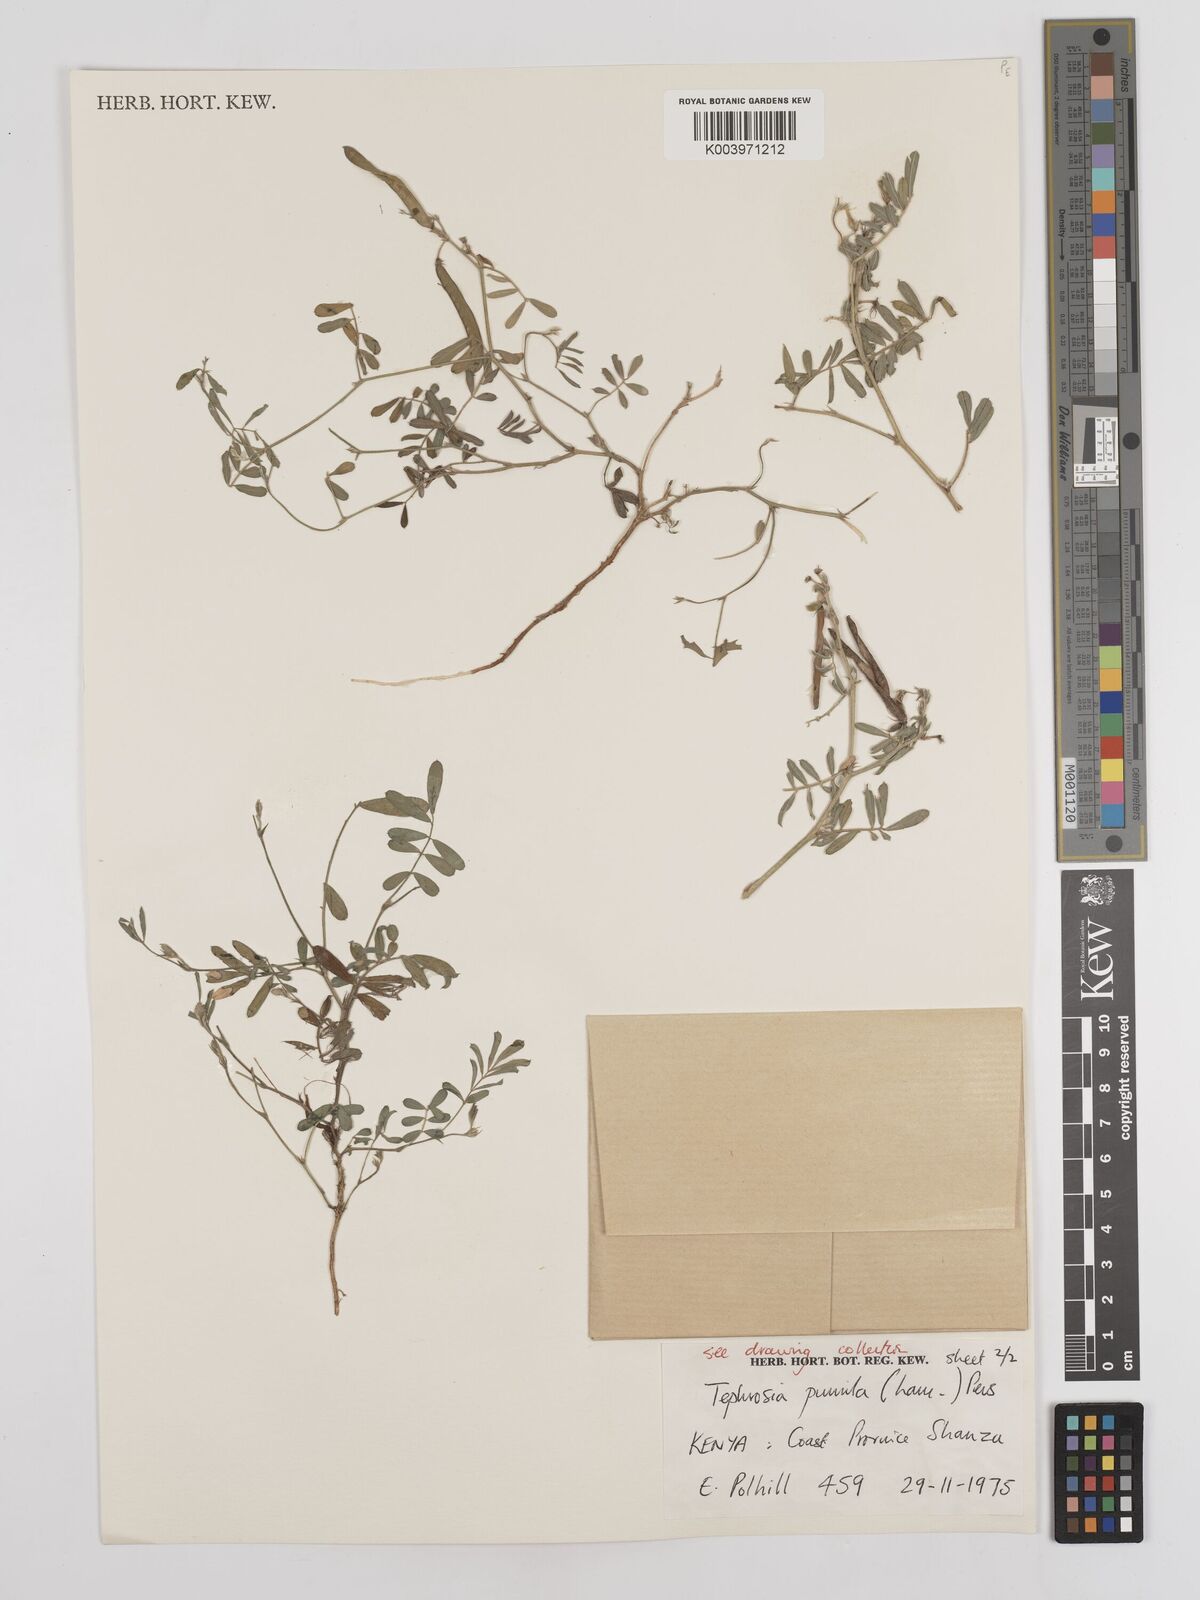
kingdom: Plantae
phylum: Tracheophyta
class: Magnoliopsida
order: Fabales
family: Fabaceae
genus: Tephrosia
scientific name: Tephrosia pumila
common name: Indigo sauvage
